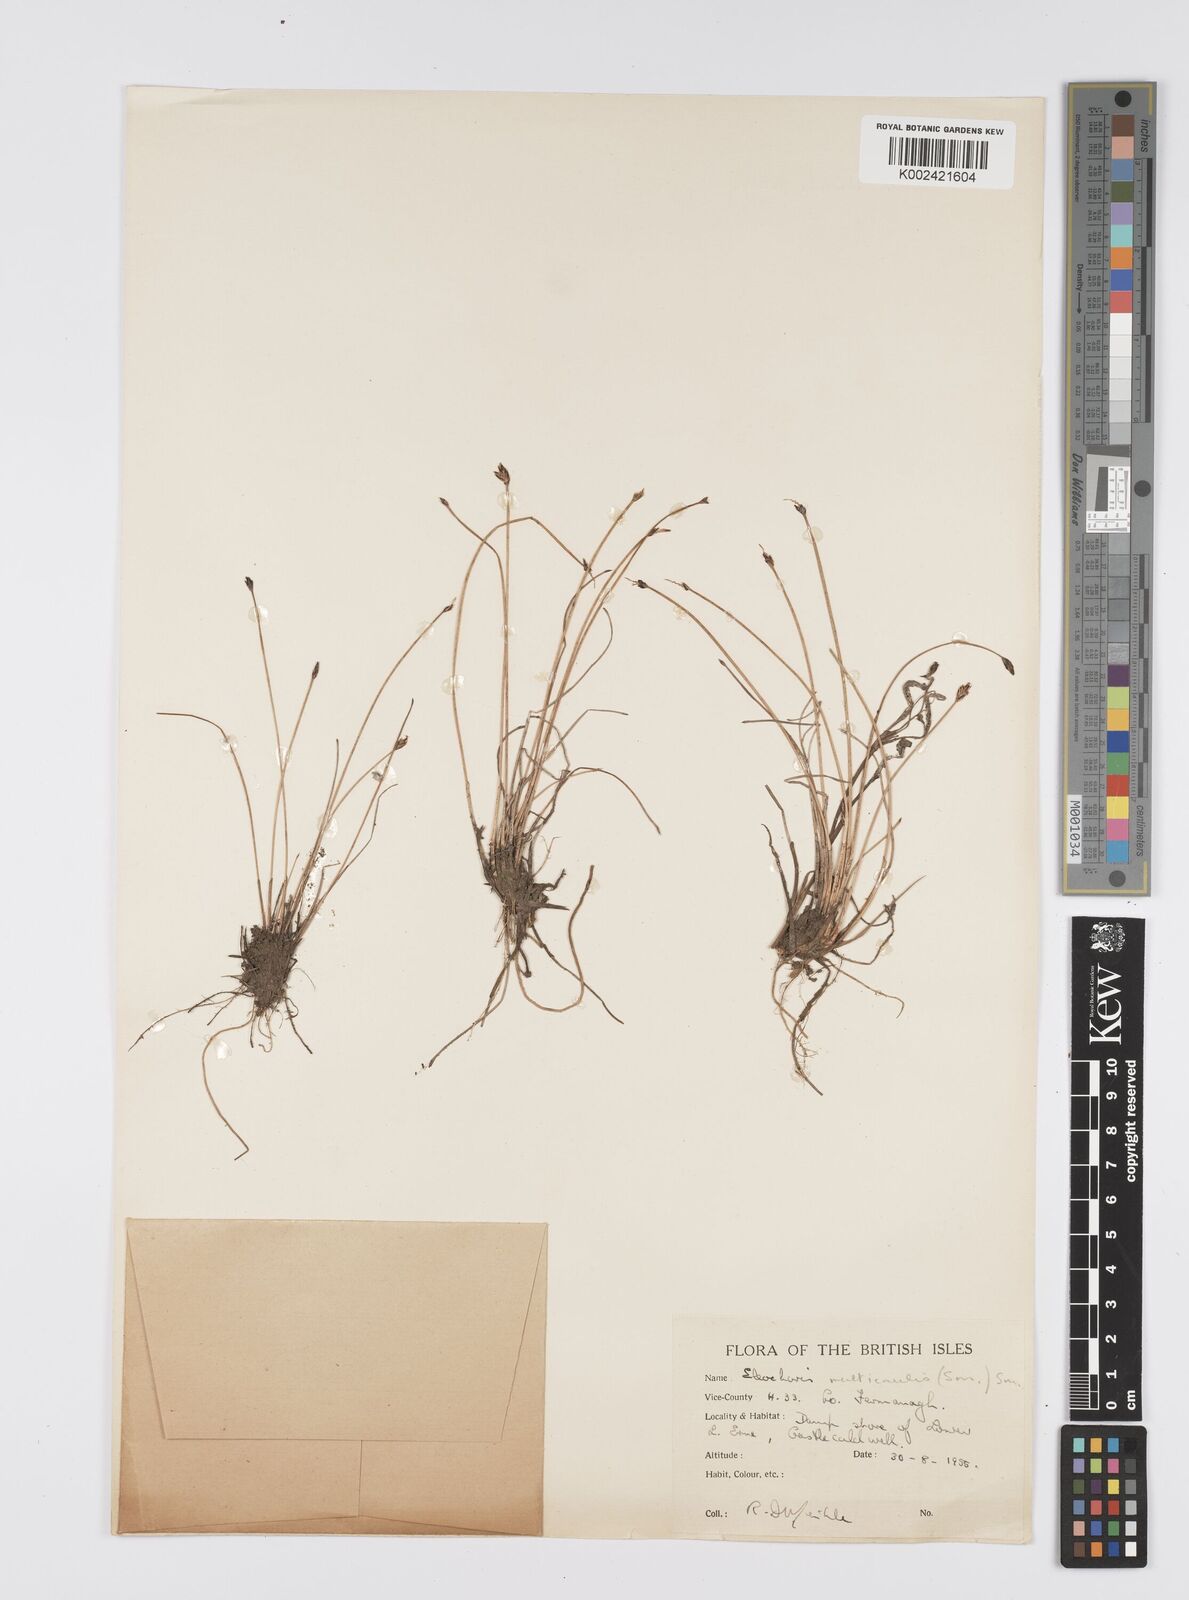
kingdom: Plantae
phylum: Tracheophyta
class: Liliopsida
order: Poales
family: Cyperaceae
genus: Eleocharis
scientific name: Eleocharis multicaulis
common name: Many-stalked spike-rush
